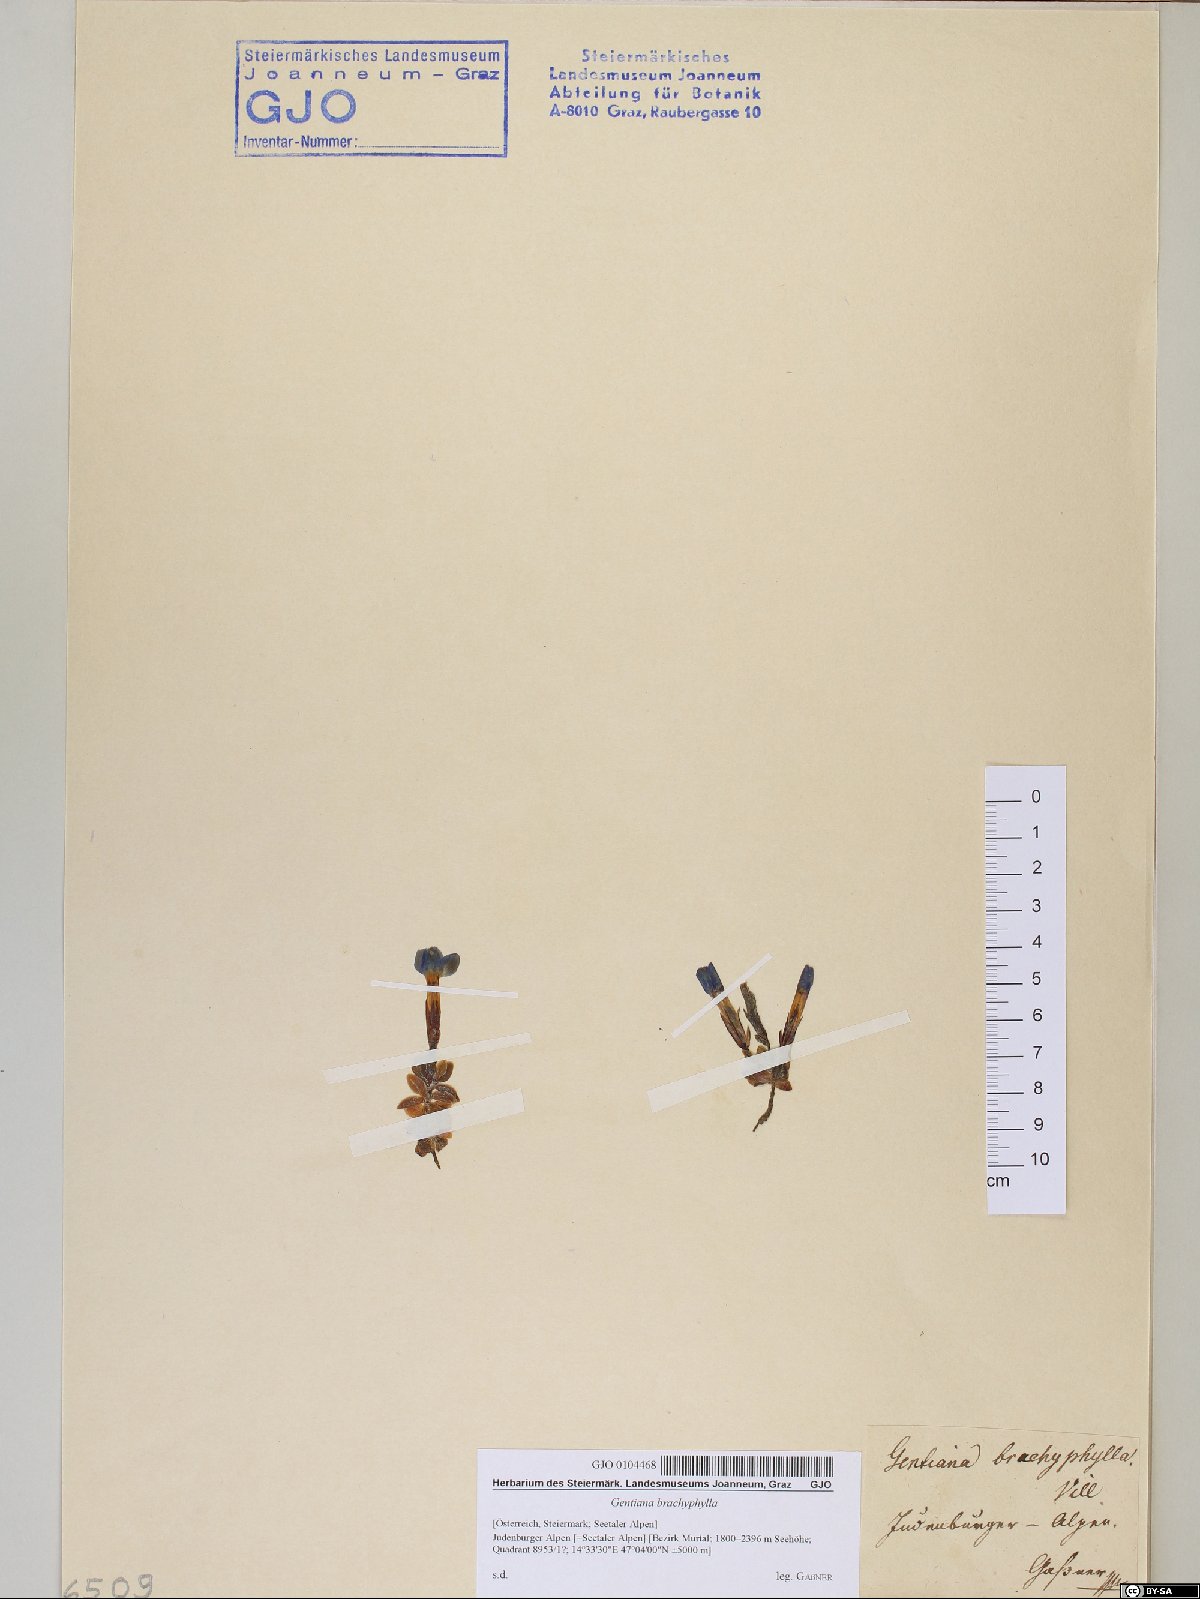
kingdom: Plantae
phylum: Tracheophyta
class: Magnoliopsida
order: Gentianales
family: Gentianaceae
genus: Gentiana
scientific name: Gentiana brachyphylla
